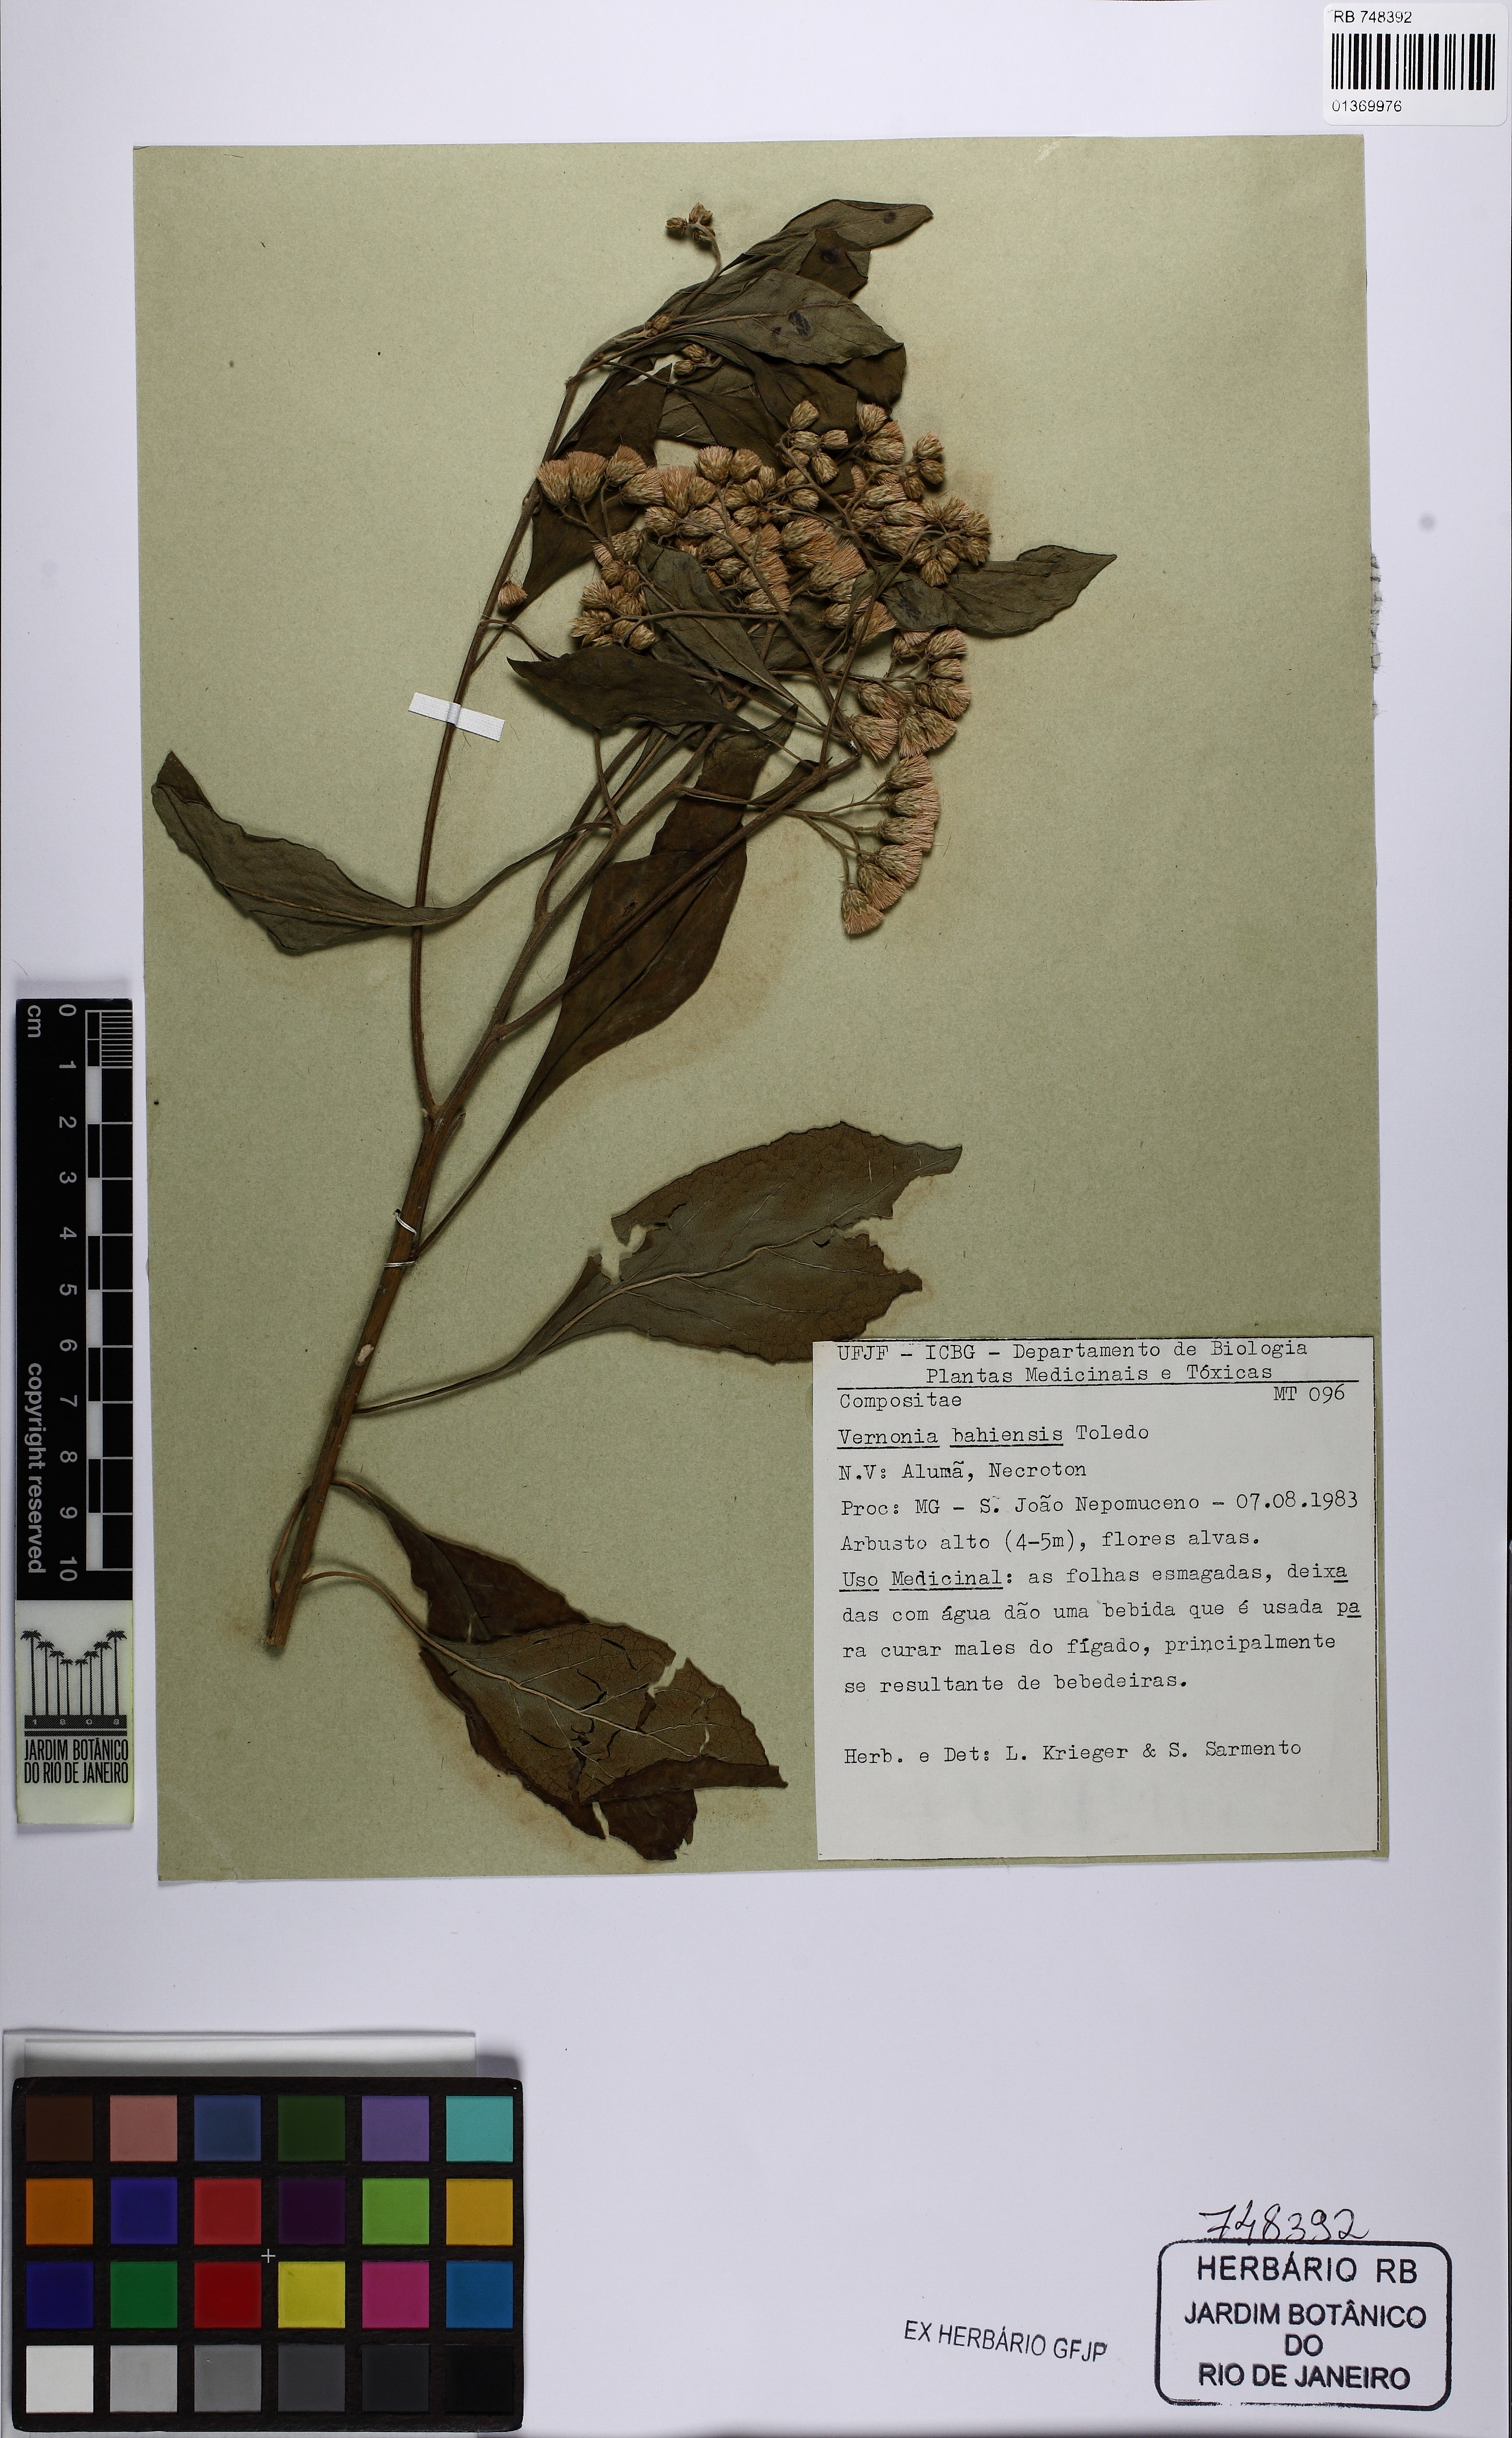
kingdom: Plantae
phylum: Tracheophyta
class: Magnoliopsida
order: Asterales
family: Asteraceae
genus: Gymnanthemum
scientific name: Gymnanthemum amygdalinum
